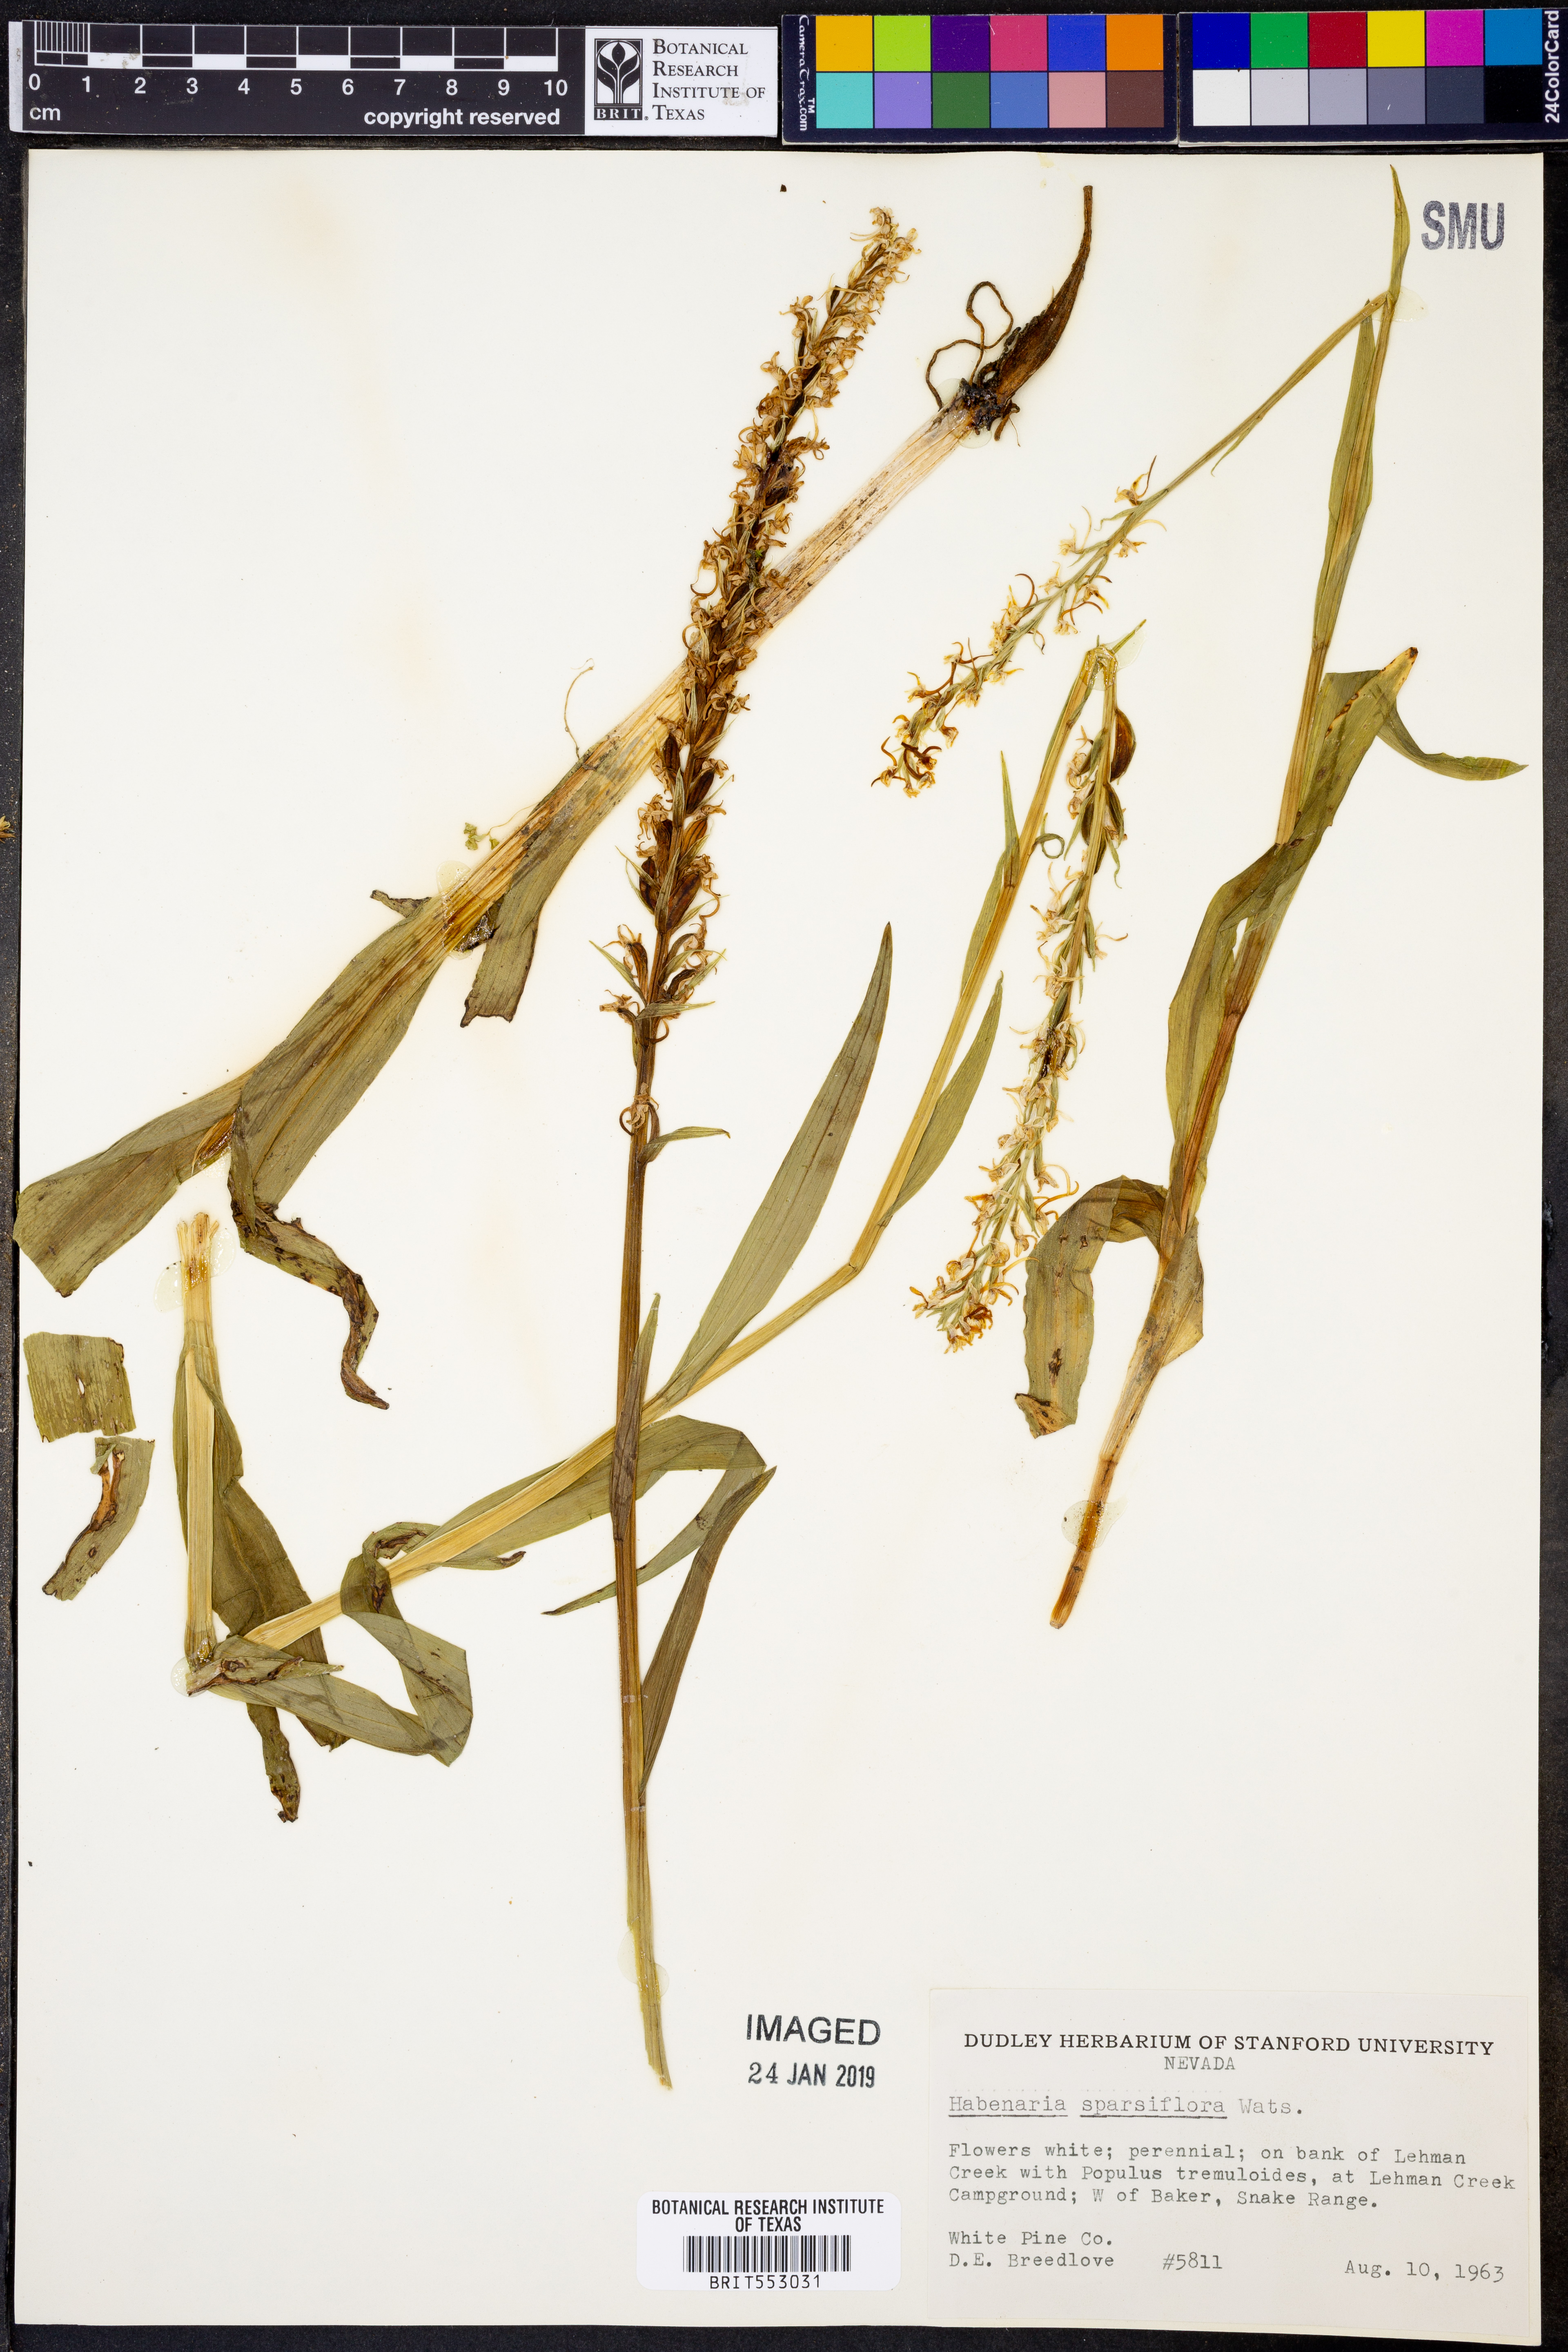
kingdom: Plantae
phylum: Tracheophyta
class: Liliopsida
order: Asparagales
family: Orchidaceae
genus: Platanthera
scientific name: Platanthera sparsiflora
